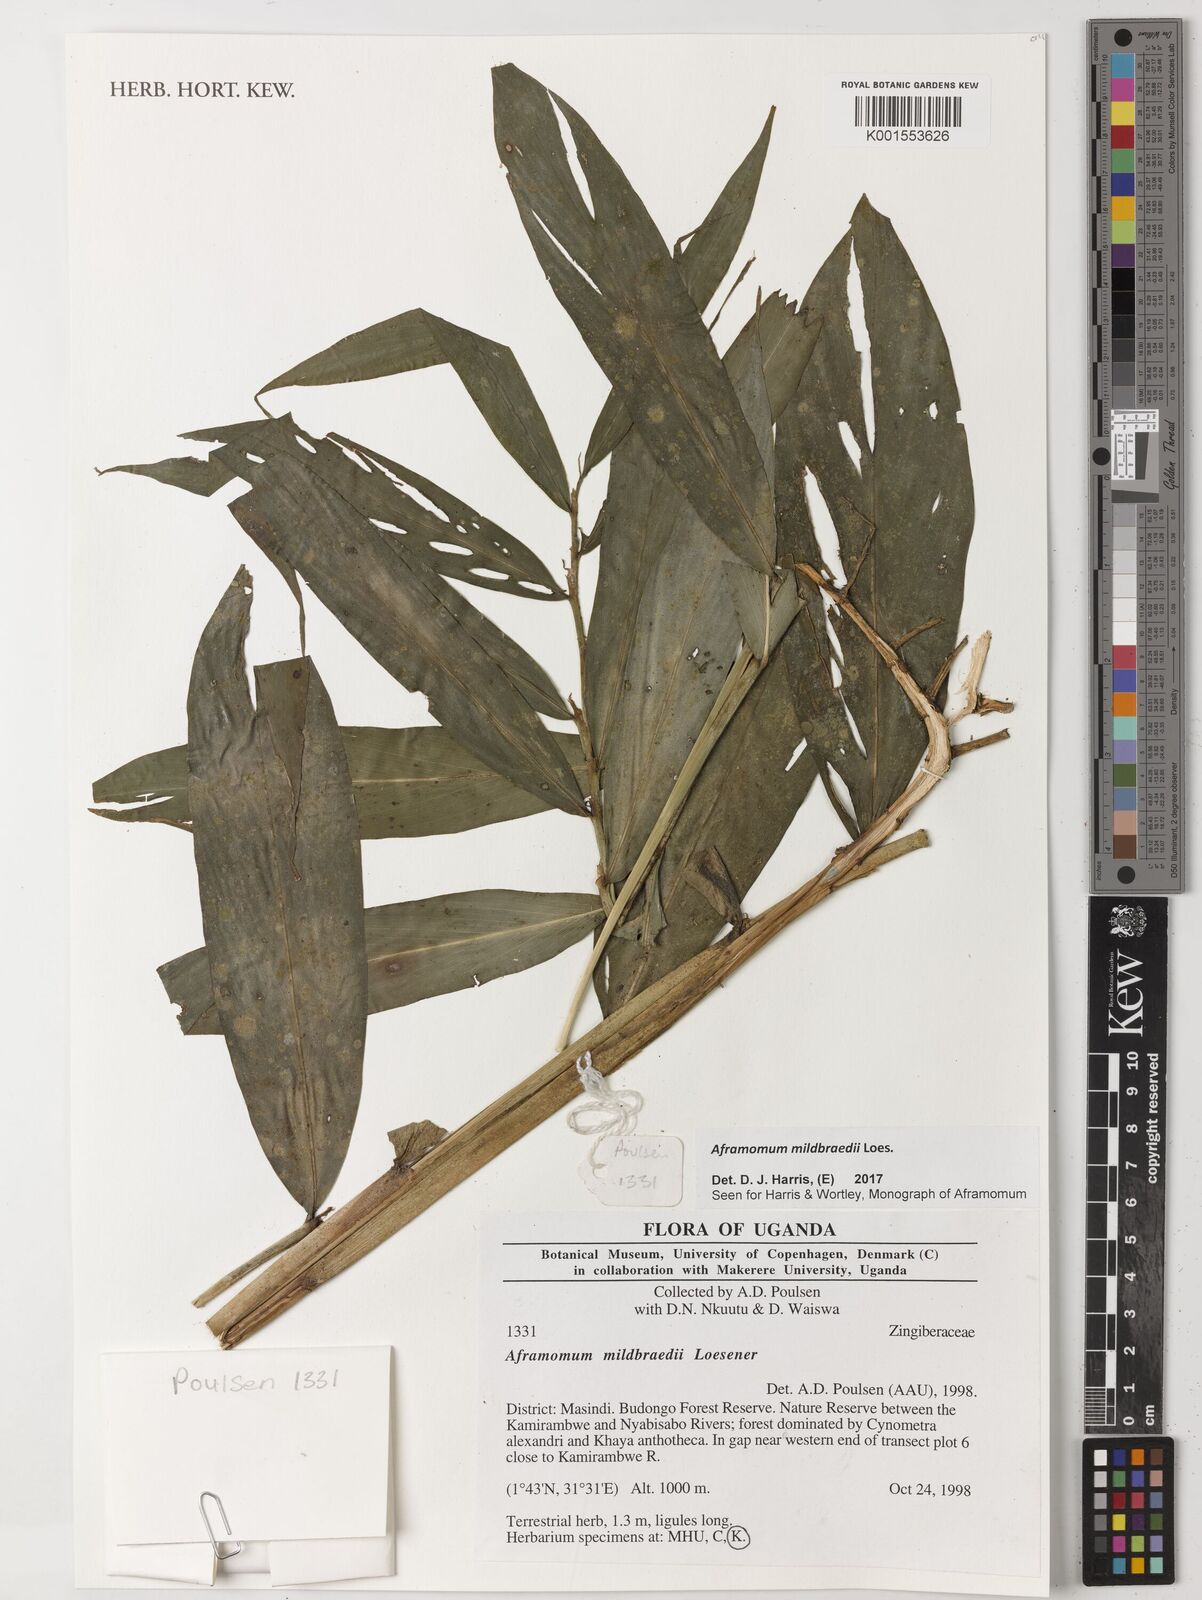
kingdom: Plantae
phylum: Tracheophyta
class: Liliopsida
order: Zingiberales
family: Zingiberaceae
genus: Aframomum
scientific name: Aframomum mildbraedii
